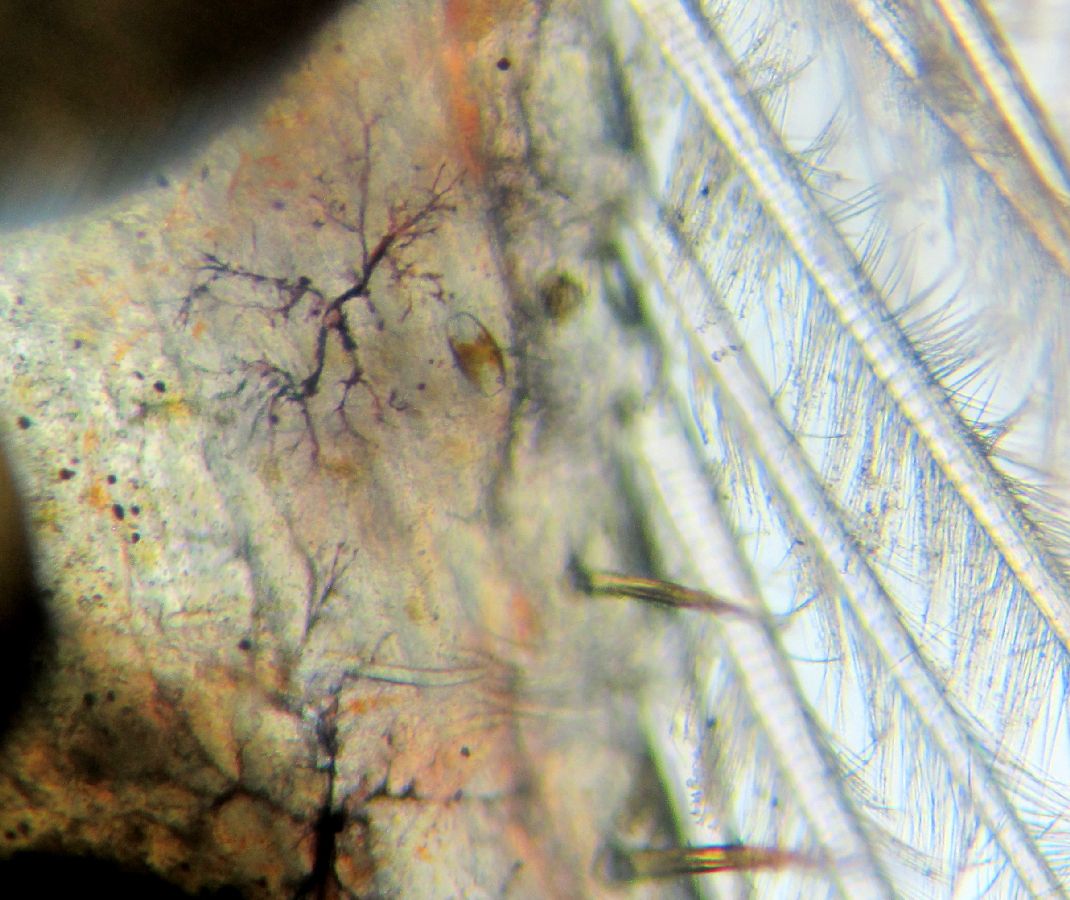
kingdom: Animalia
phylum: Arthropoda
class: Malacostraca
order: Decapoda
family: Crangonidae
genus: Sclerocrangon
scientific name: Sclerocrangon boreas
